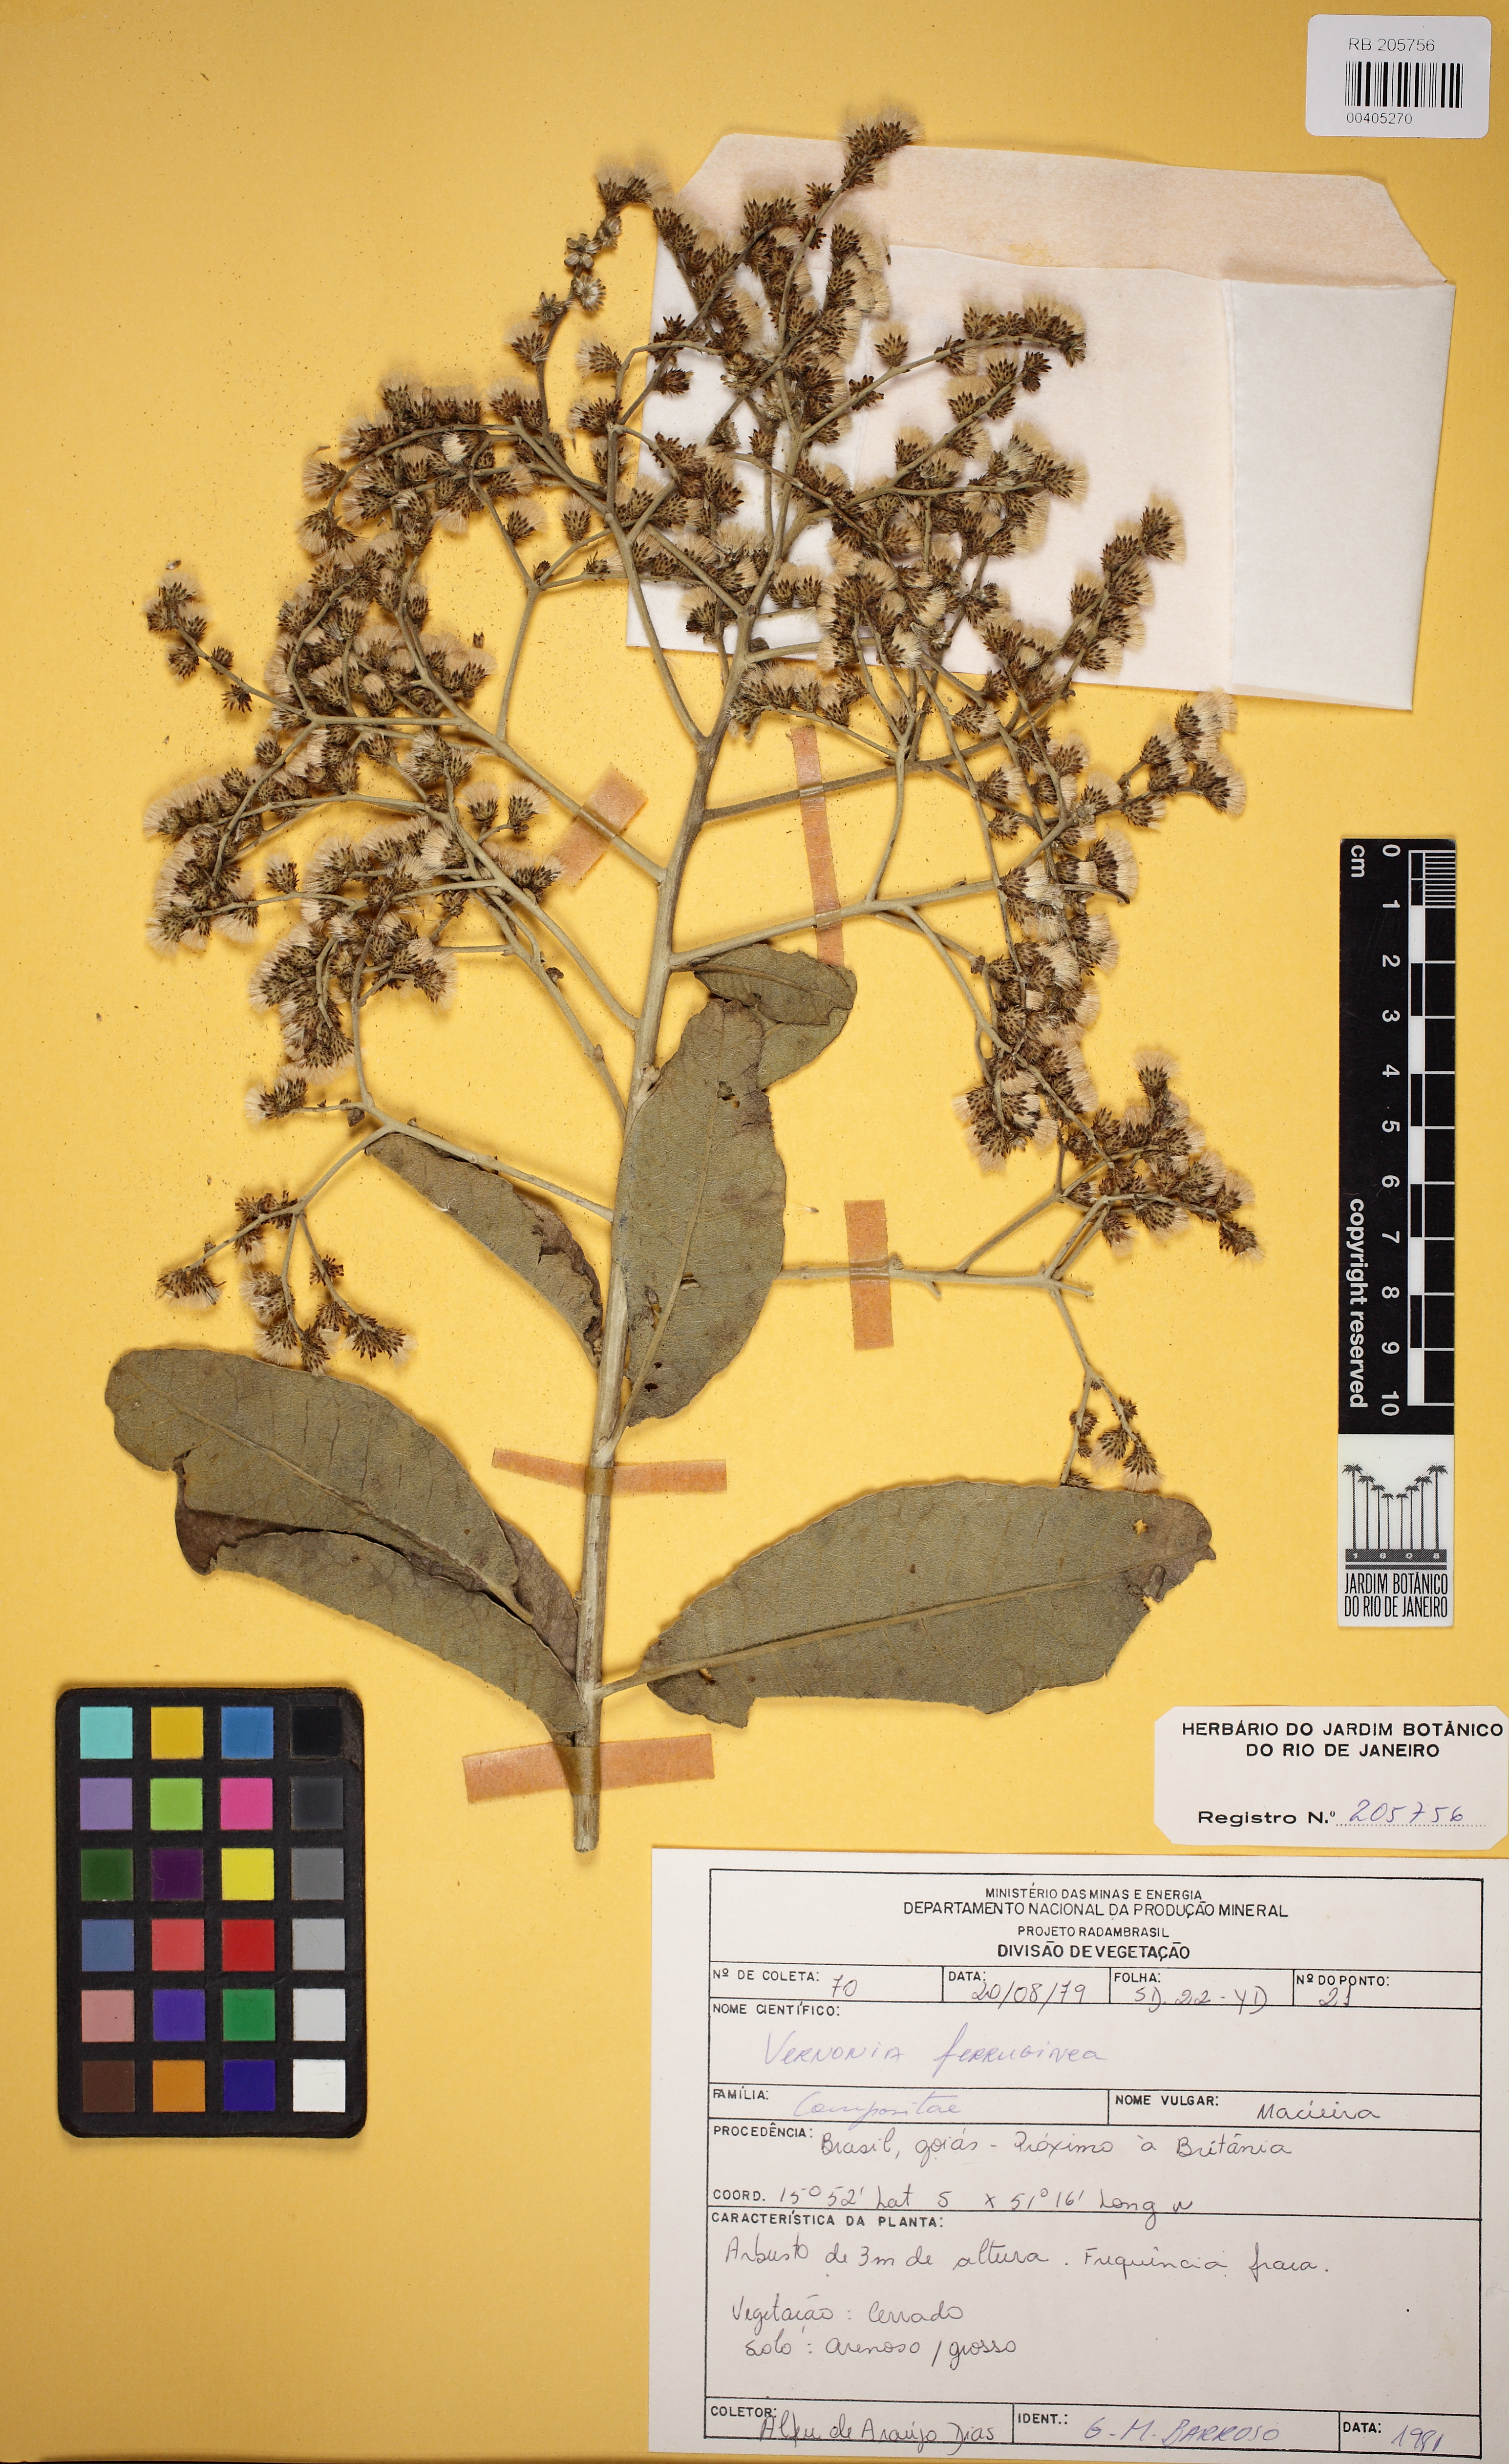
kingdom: Plantae
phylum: Tracheophyta
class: Magnoliopsida
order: Asterales
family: Asteraceae
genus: Vernonanthura
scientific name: Vernonanthura ferruginea
